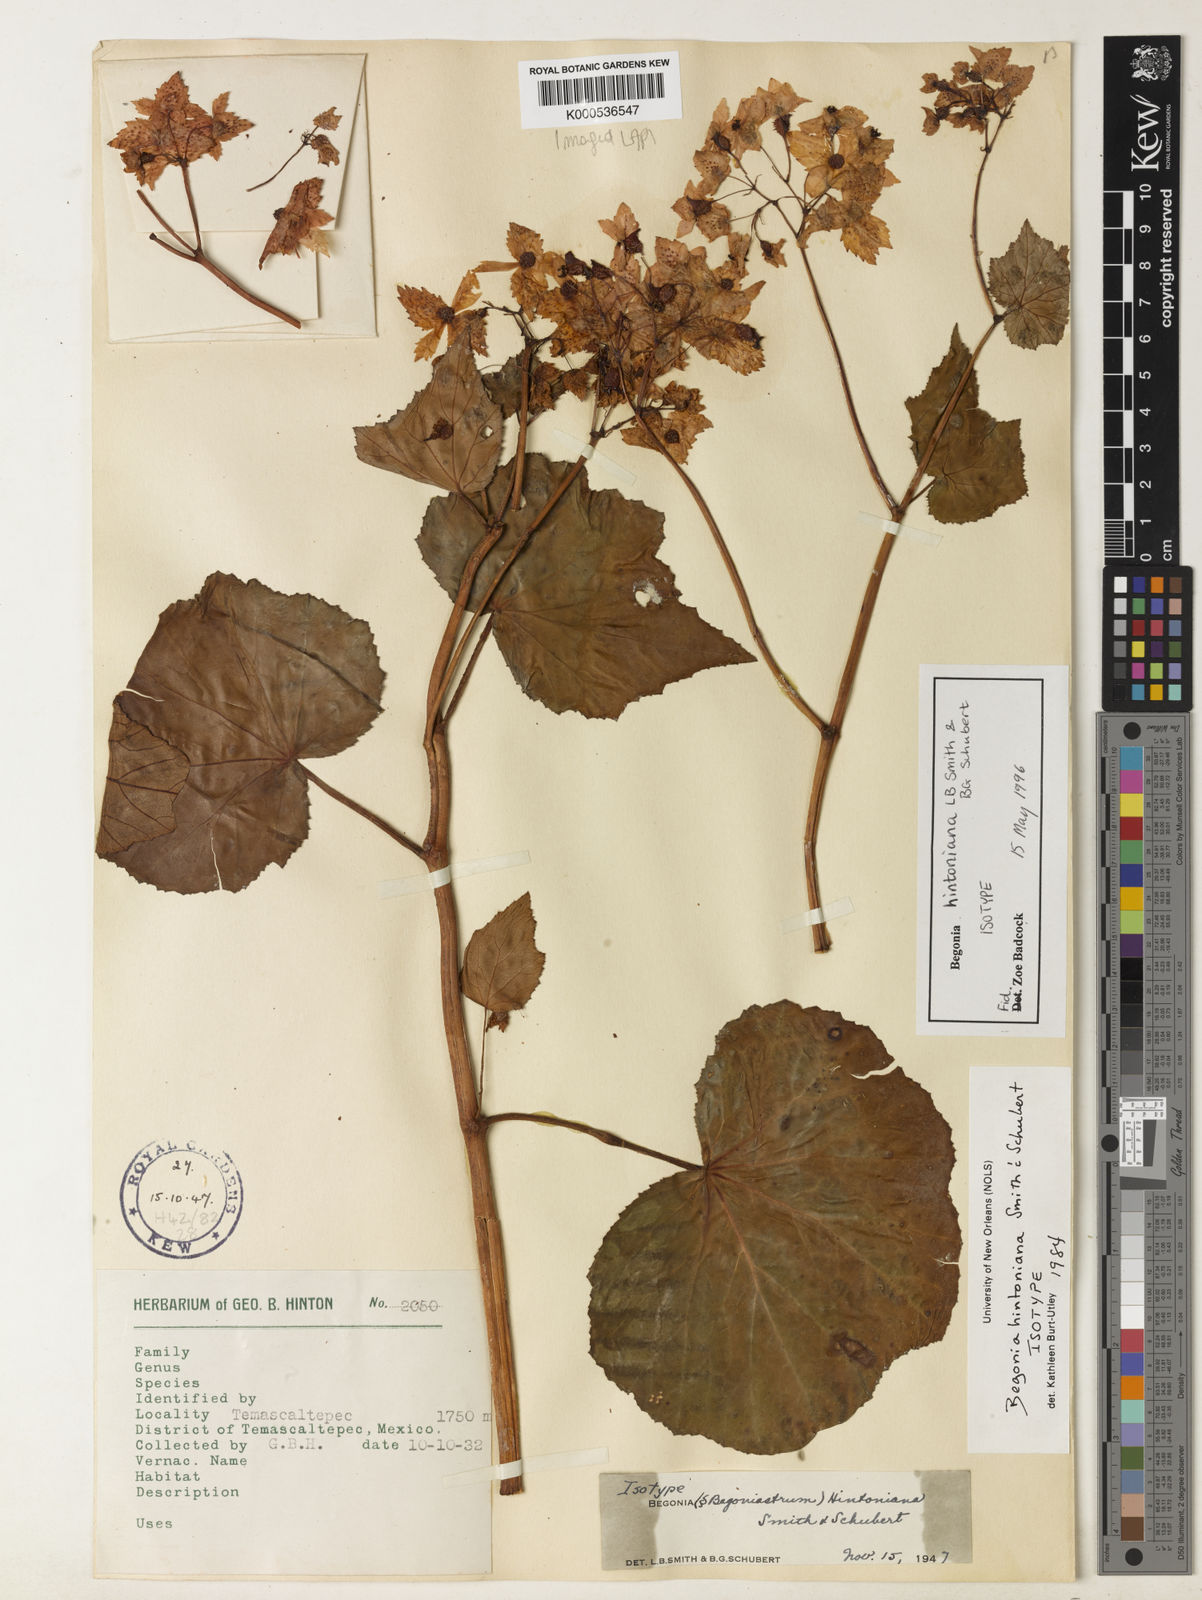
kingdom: Plantae
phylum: Tracheophyta
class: Magnoliopsida
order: Cucurbitales
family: Begoniaceae
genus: Begonia
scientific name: Begonia hintoniana
